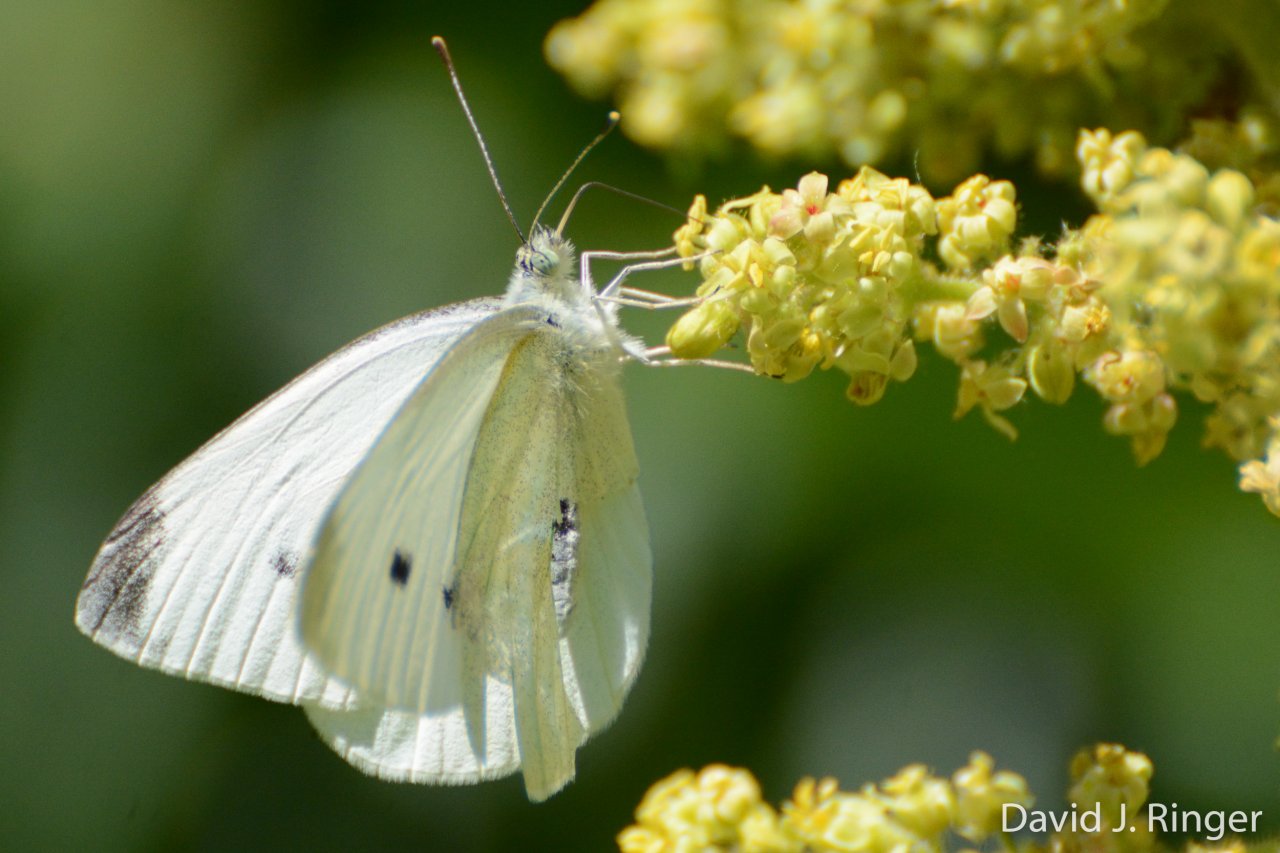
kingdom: Animalia
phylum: Arthropoda
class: Insecta
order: Lepidoptera
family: Pieridae
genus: Pieris
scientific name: Pieris rapae
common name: Cabbage White
